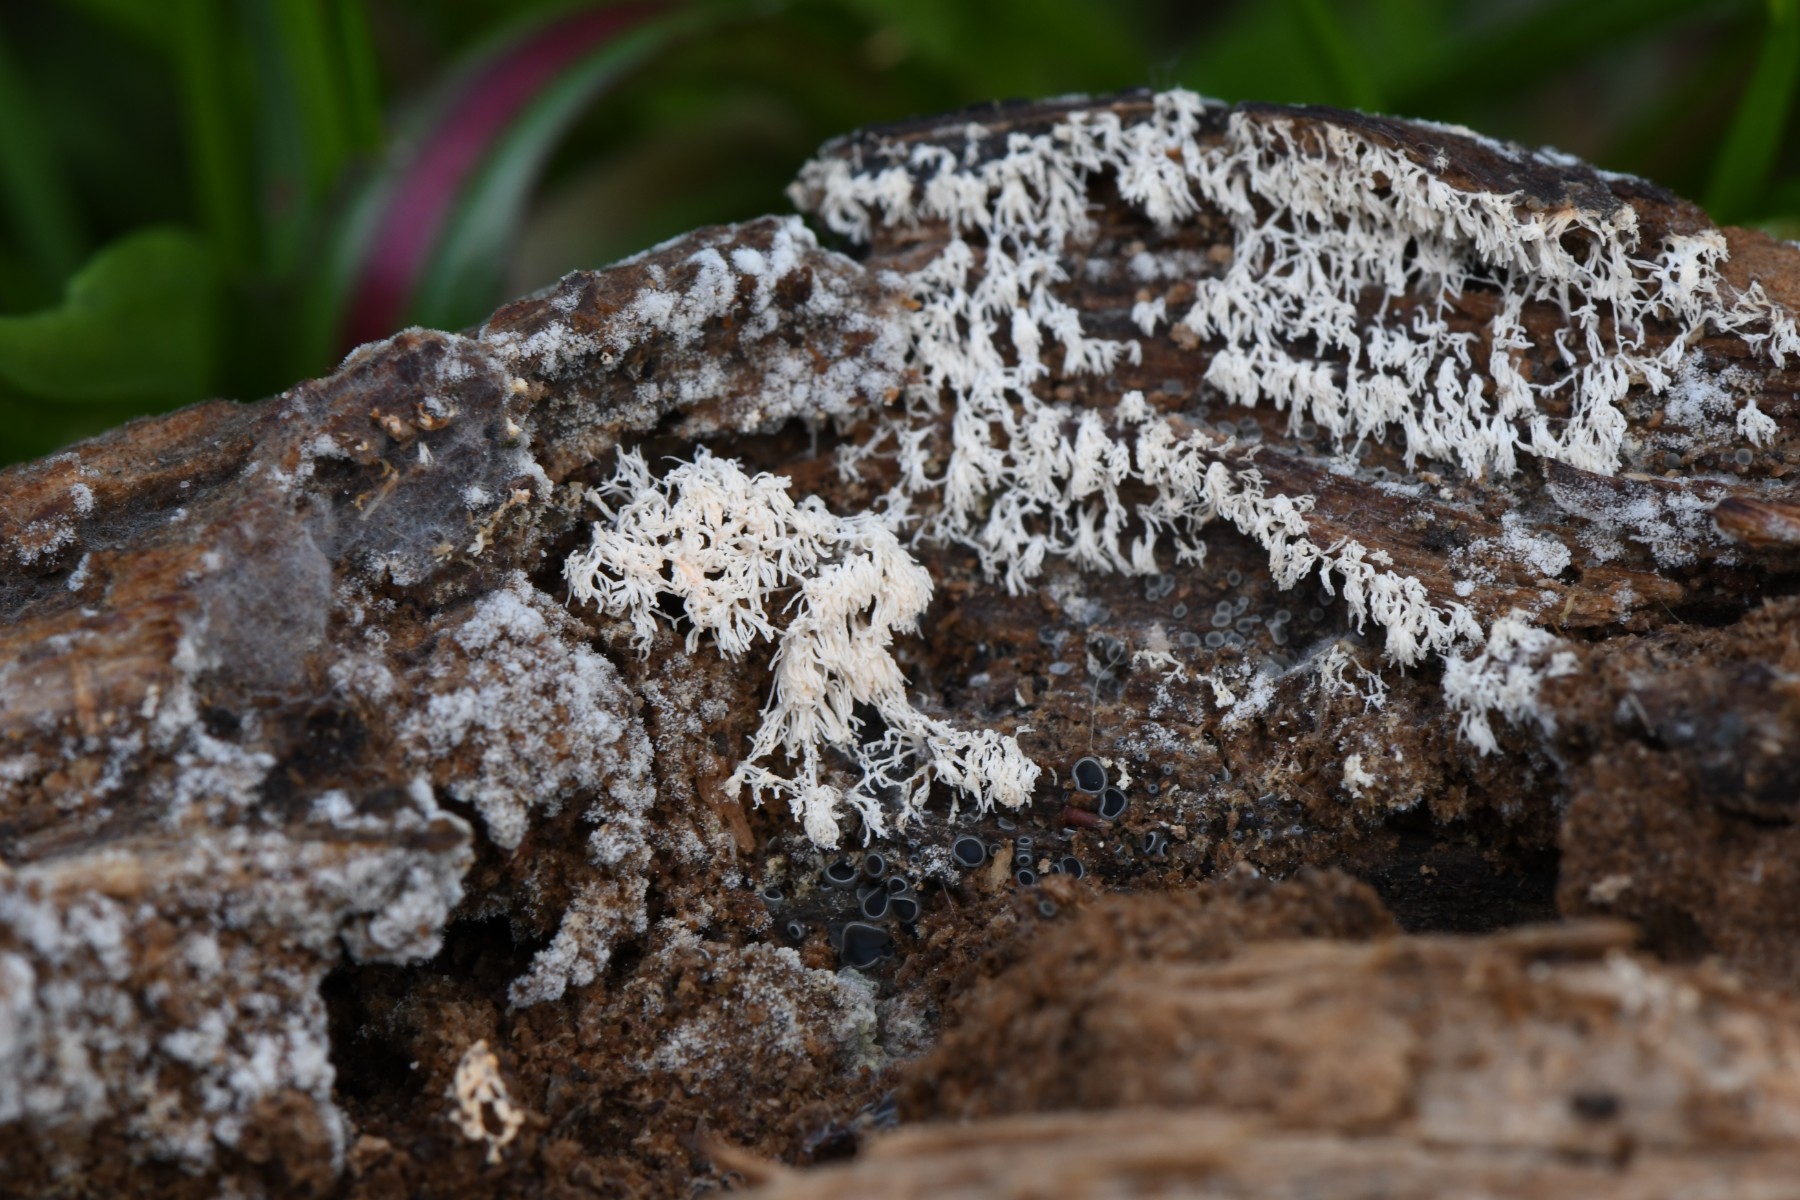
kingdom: Protozoa
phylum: Mycetozoa
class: Protosteliomycetes
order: Ceratiomyxales
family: Ceratiomyxaceae
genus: Ceratiomyxa
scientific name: Ceratiomyxa fruticulosa
